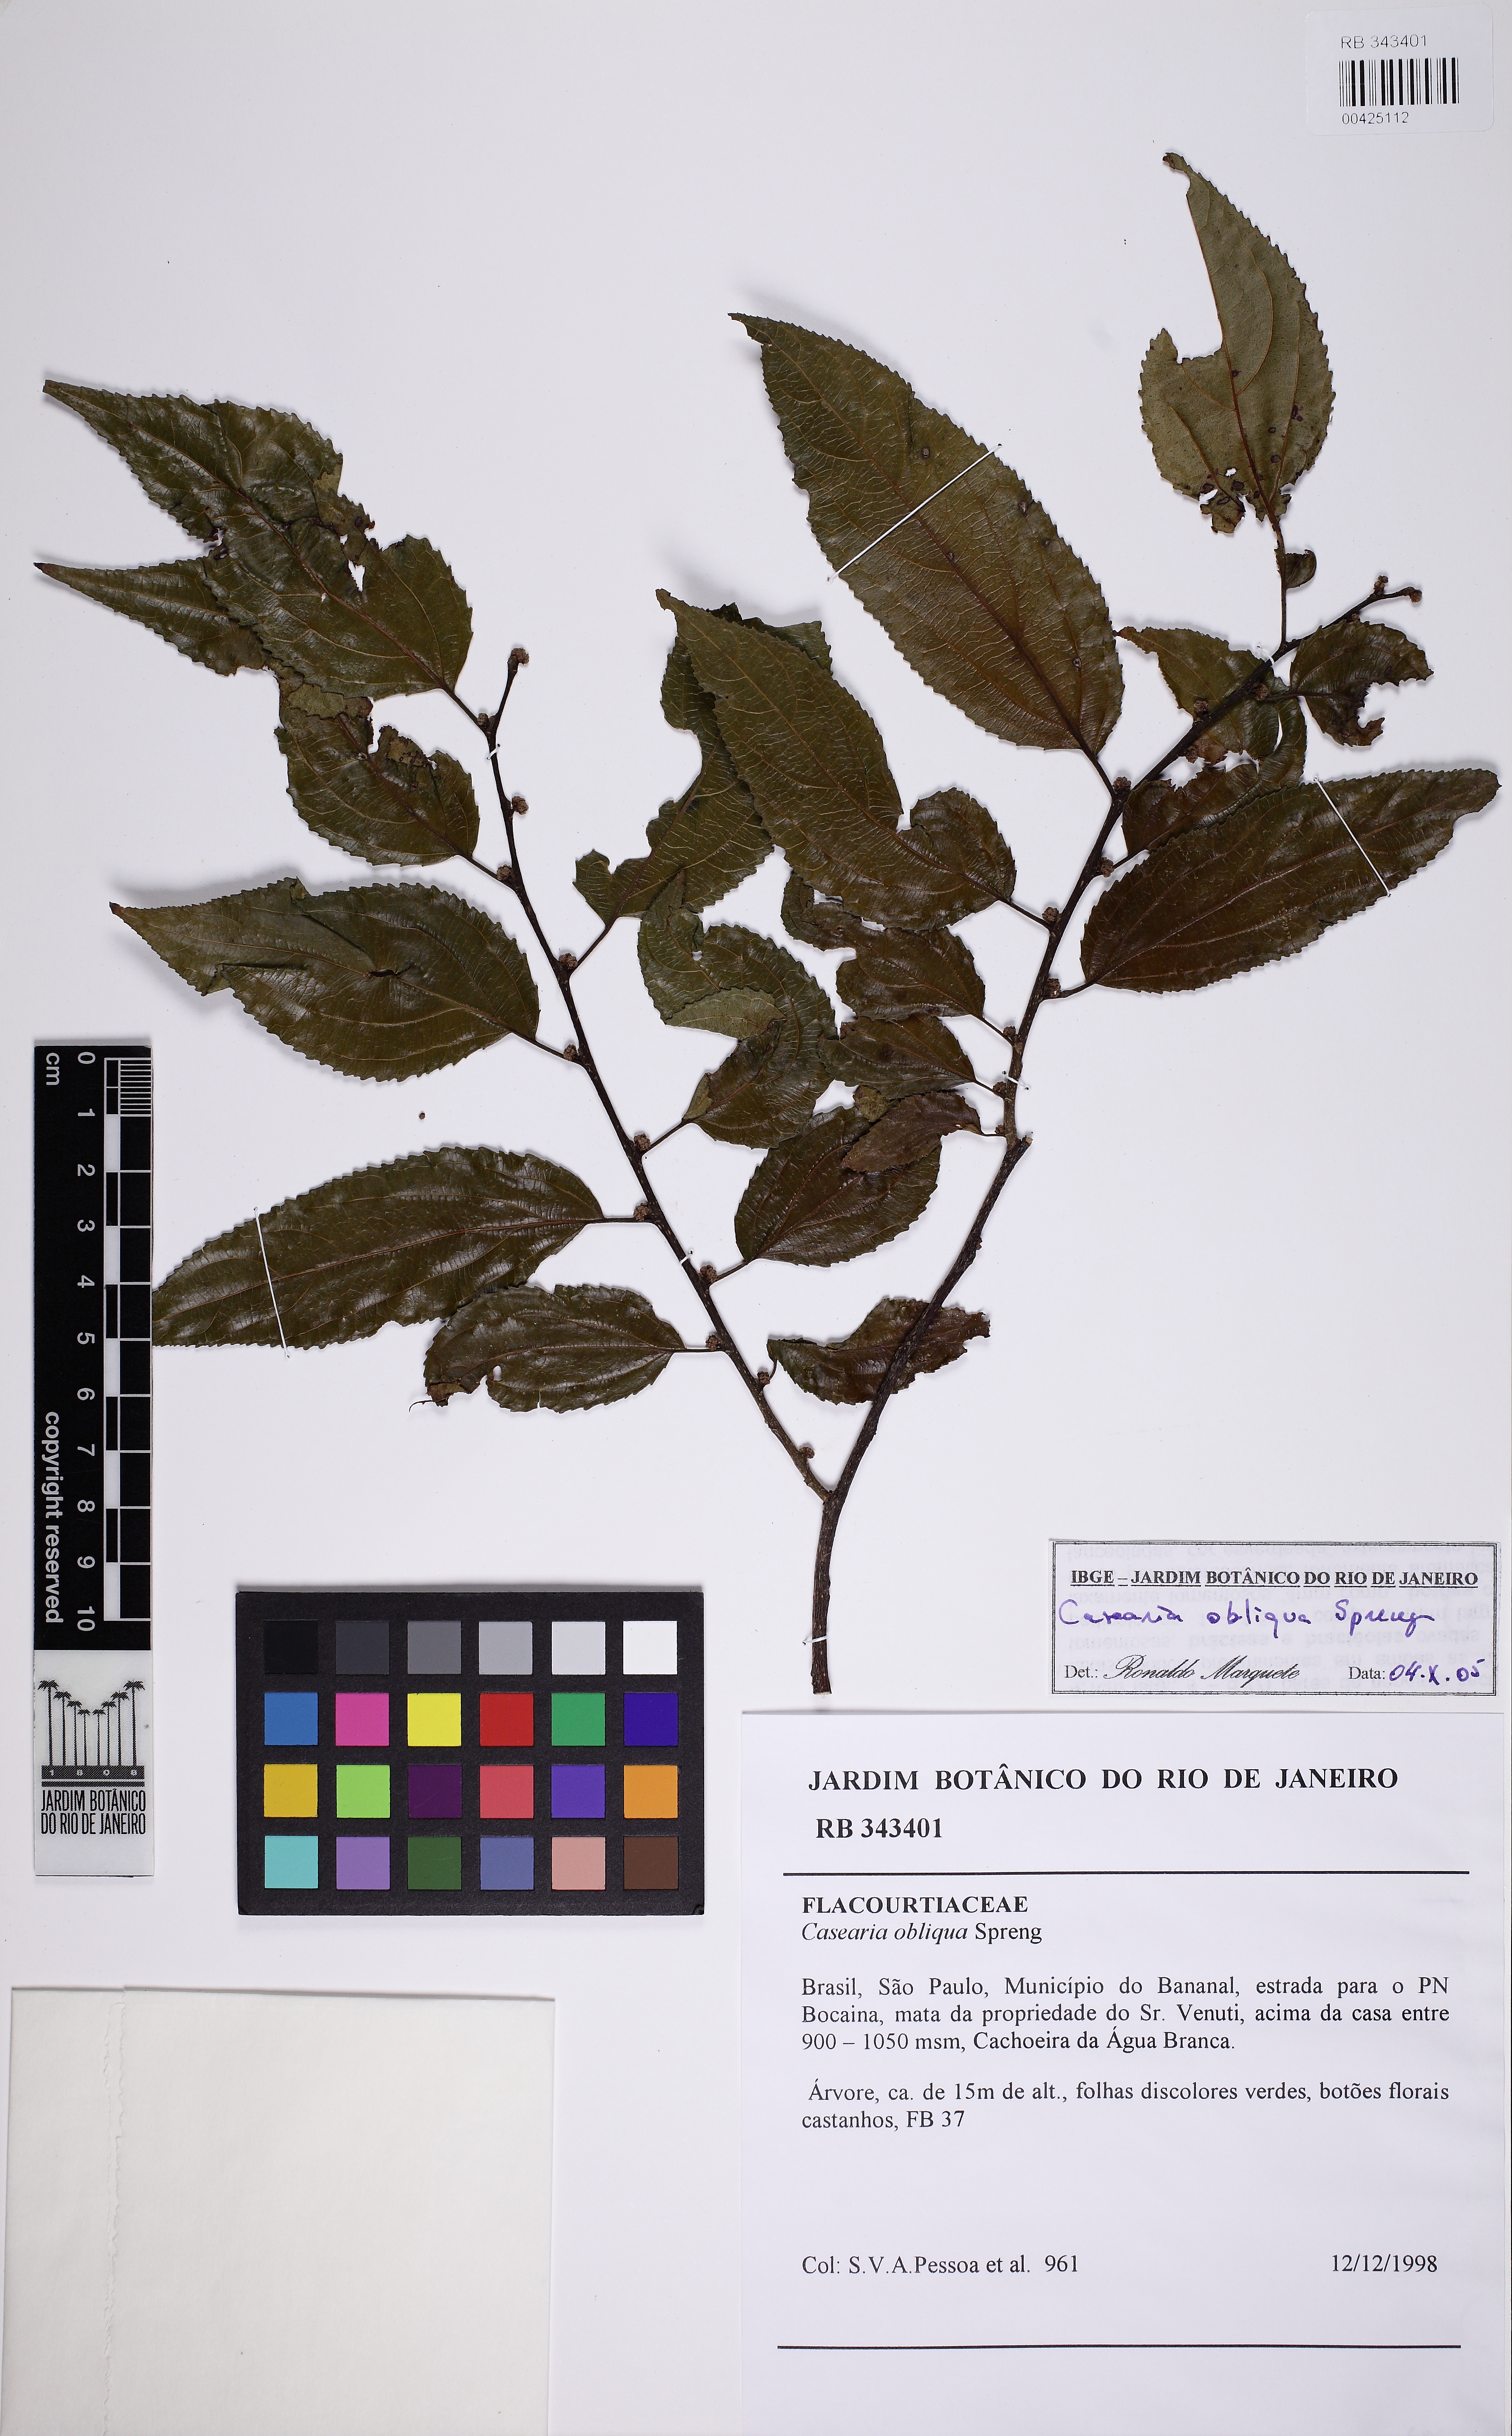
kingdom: Plantae
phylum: Tracheophyta
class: Magnoliopsida
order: Malpighiales
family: Salicaceae
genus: Casearia
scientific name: Casearia obliqua
